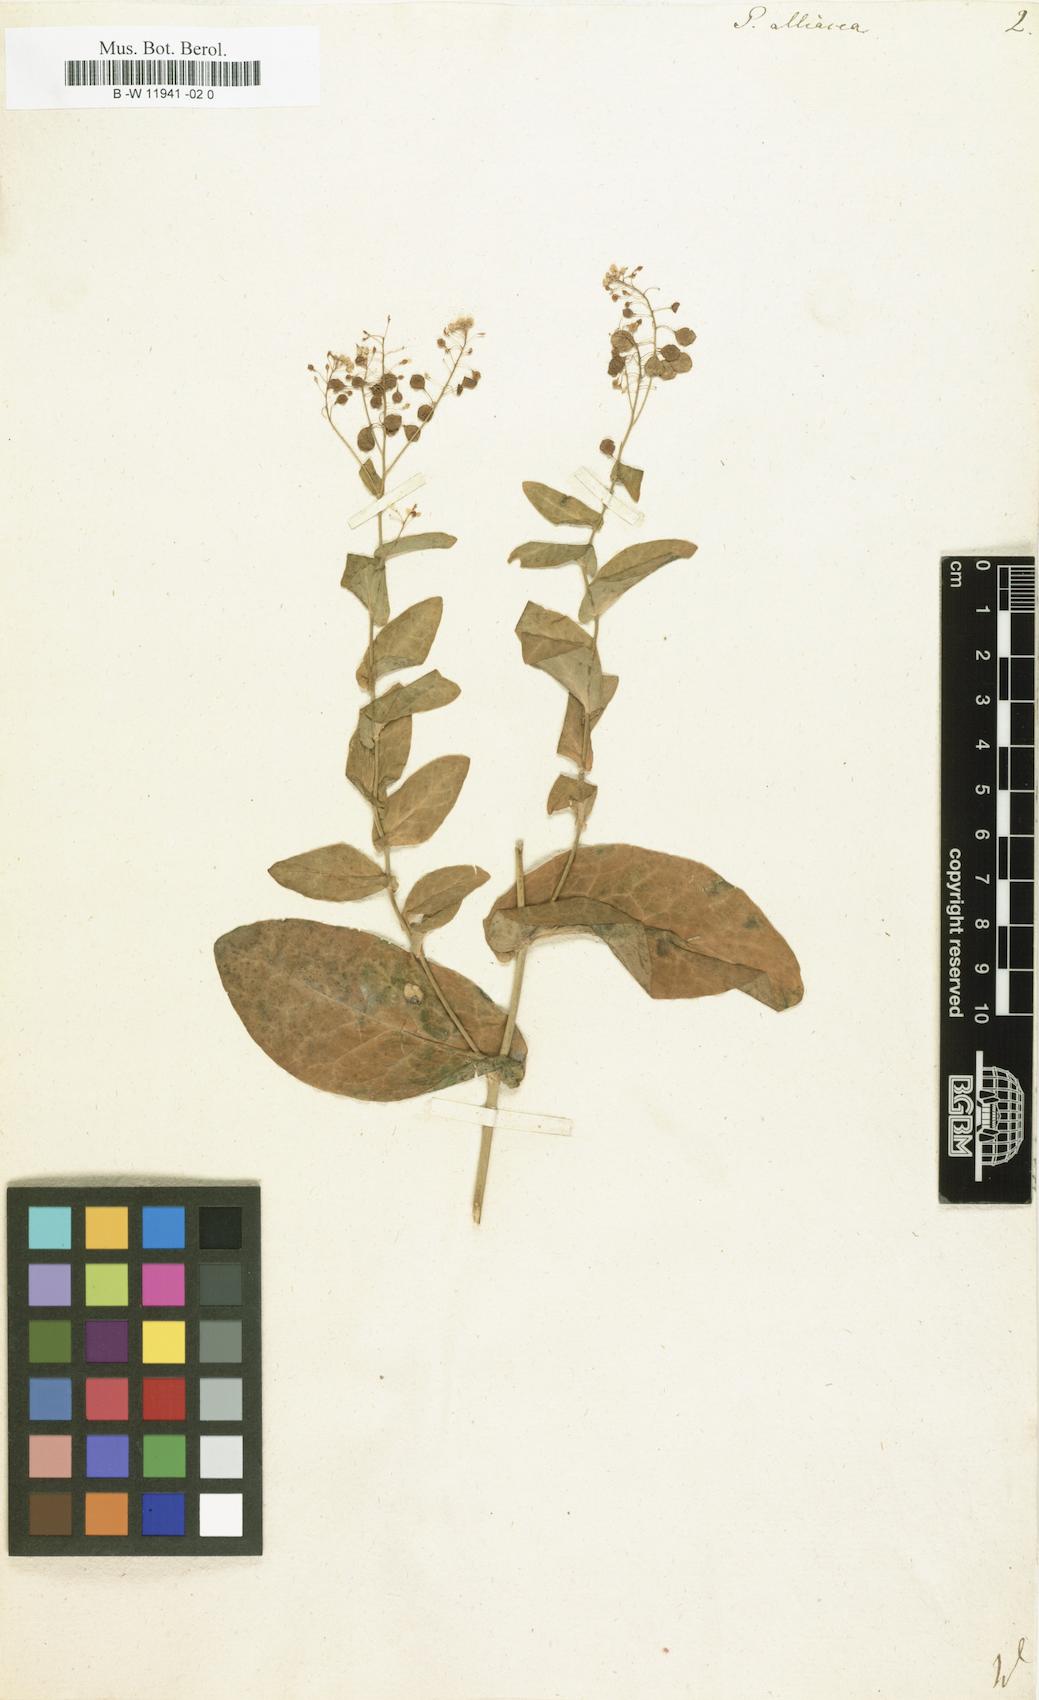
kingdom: Plantae
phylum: Tracheophyta
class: Magnoliopsida
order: Brassicales
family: Brassicaceae
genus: Peltaria
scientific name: Peltaria alliacea
